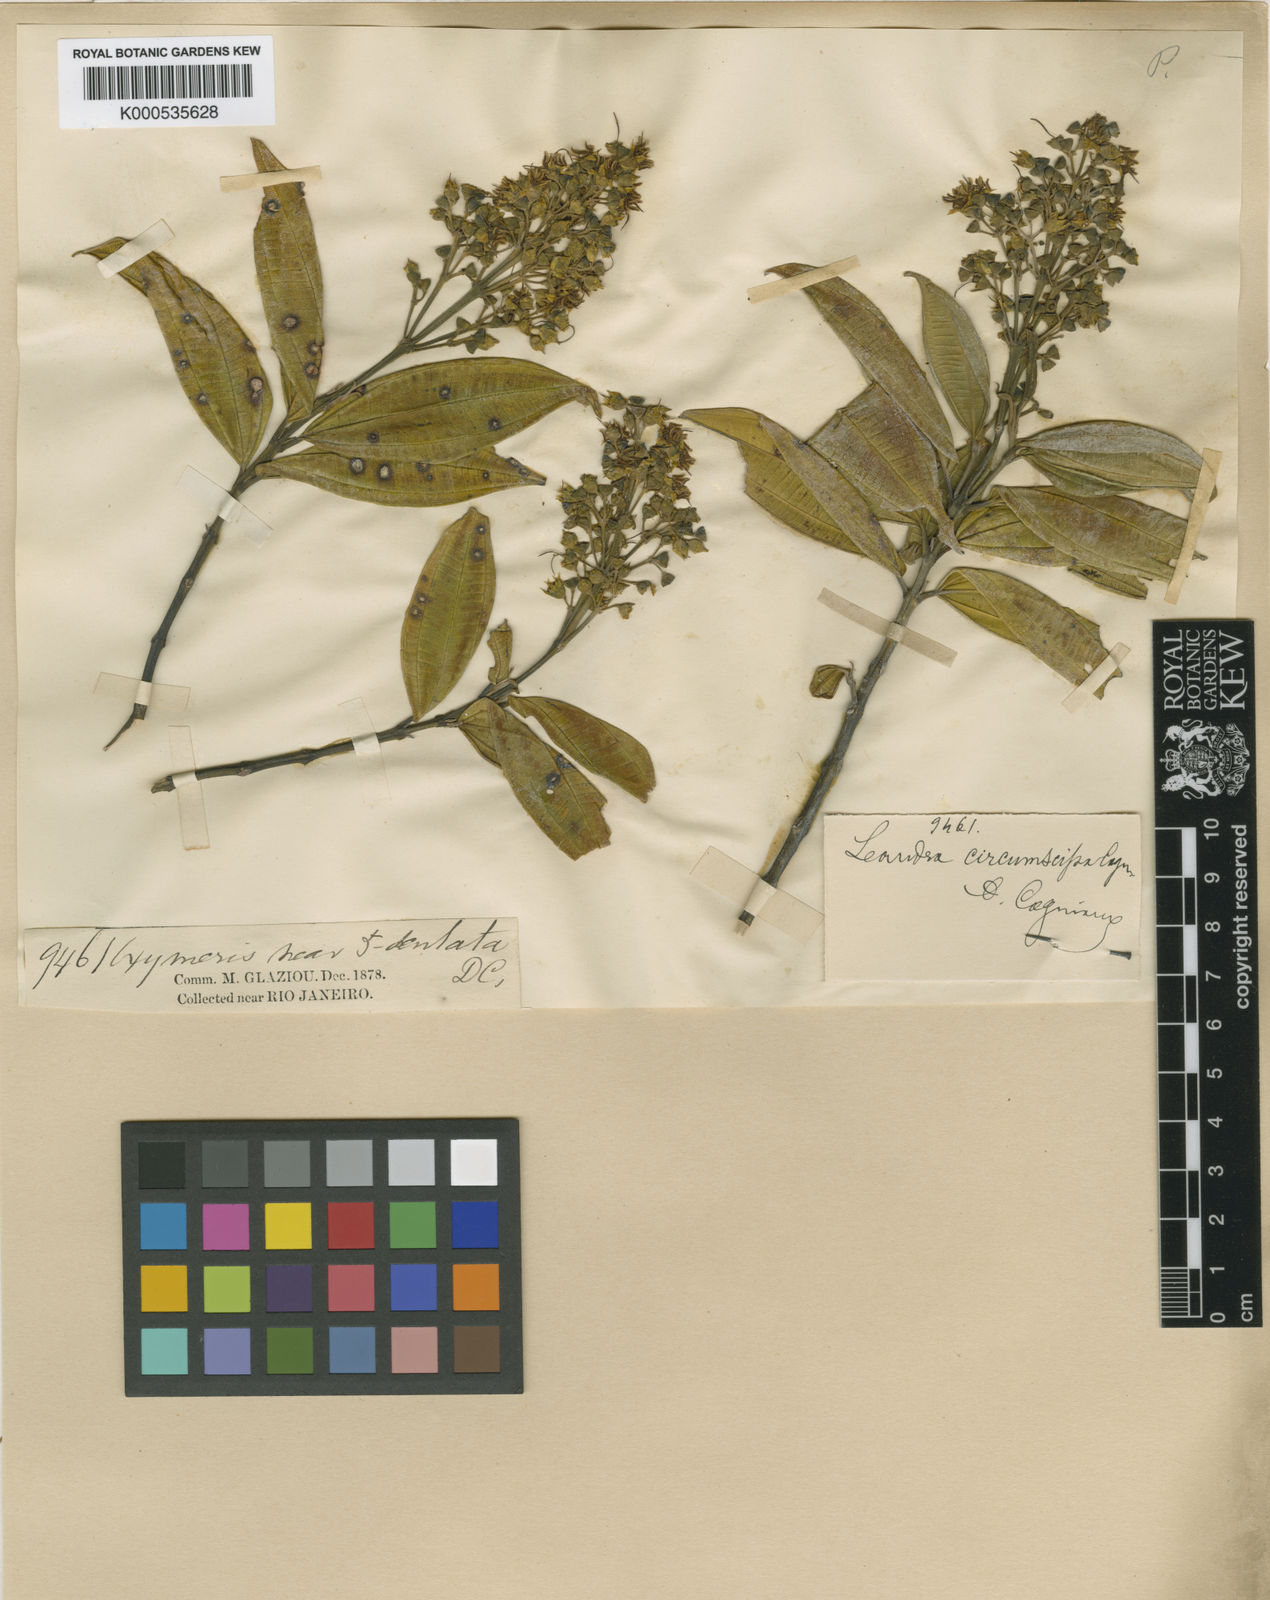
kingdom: Plantae
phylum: Tracheophyta
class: Magnoliopsida
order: Myrtales
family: Melastomataceae
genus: Miconia
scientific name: Miconia circumscissa
